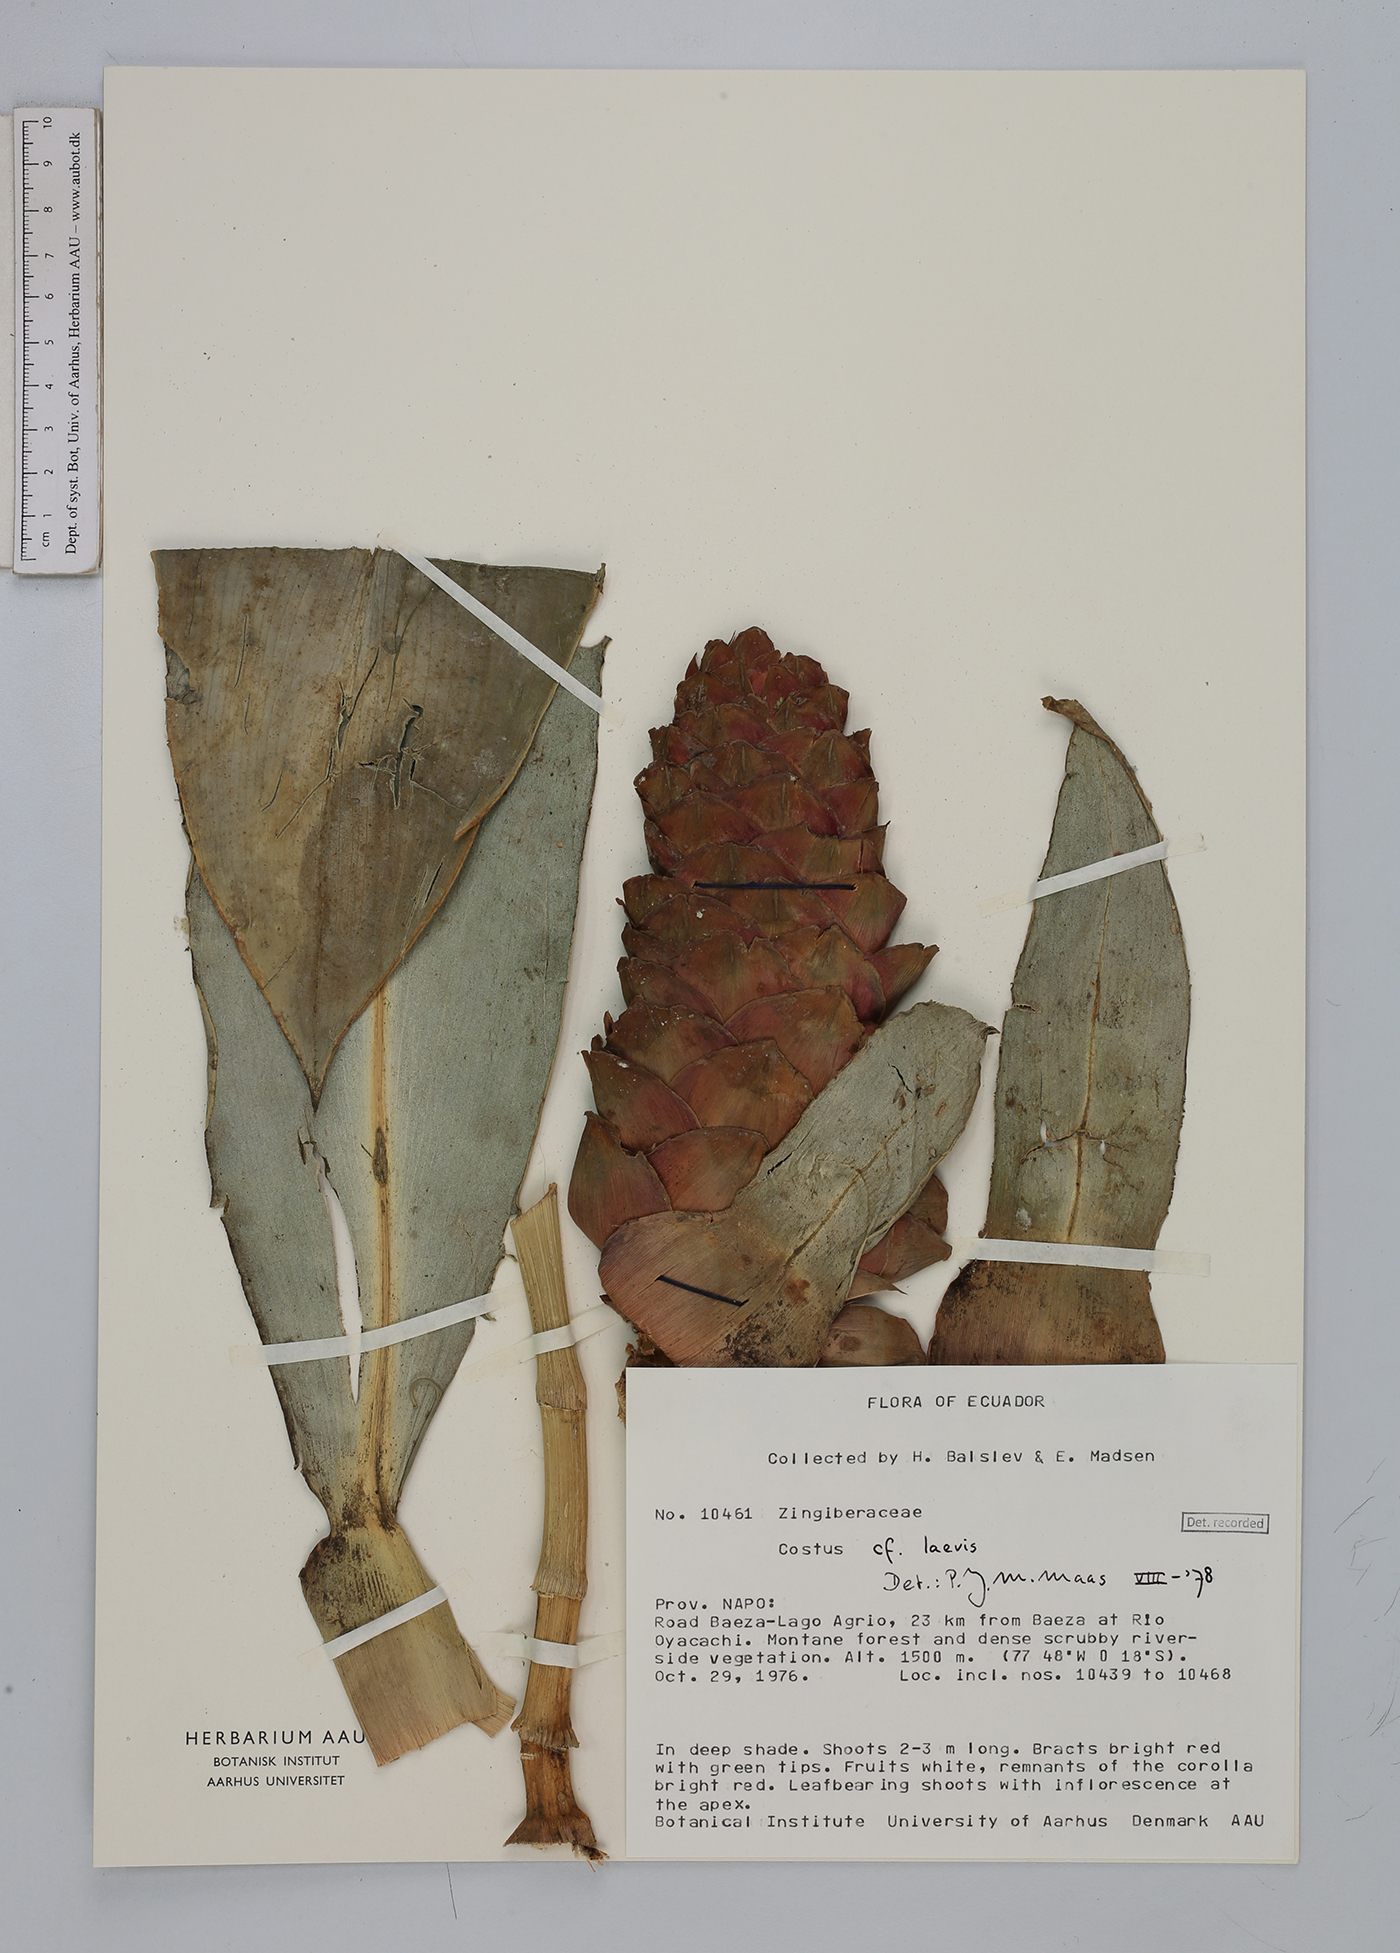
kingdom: Plantae
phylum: Tracheophyta
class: Liliopsida
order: Zingiberales
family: Costaceae
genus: Costus
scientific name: Costus laevis
